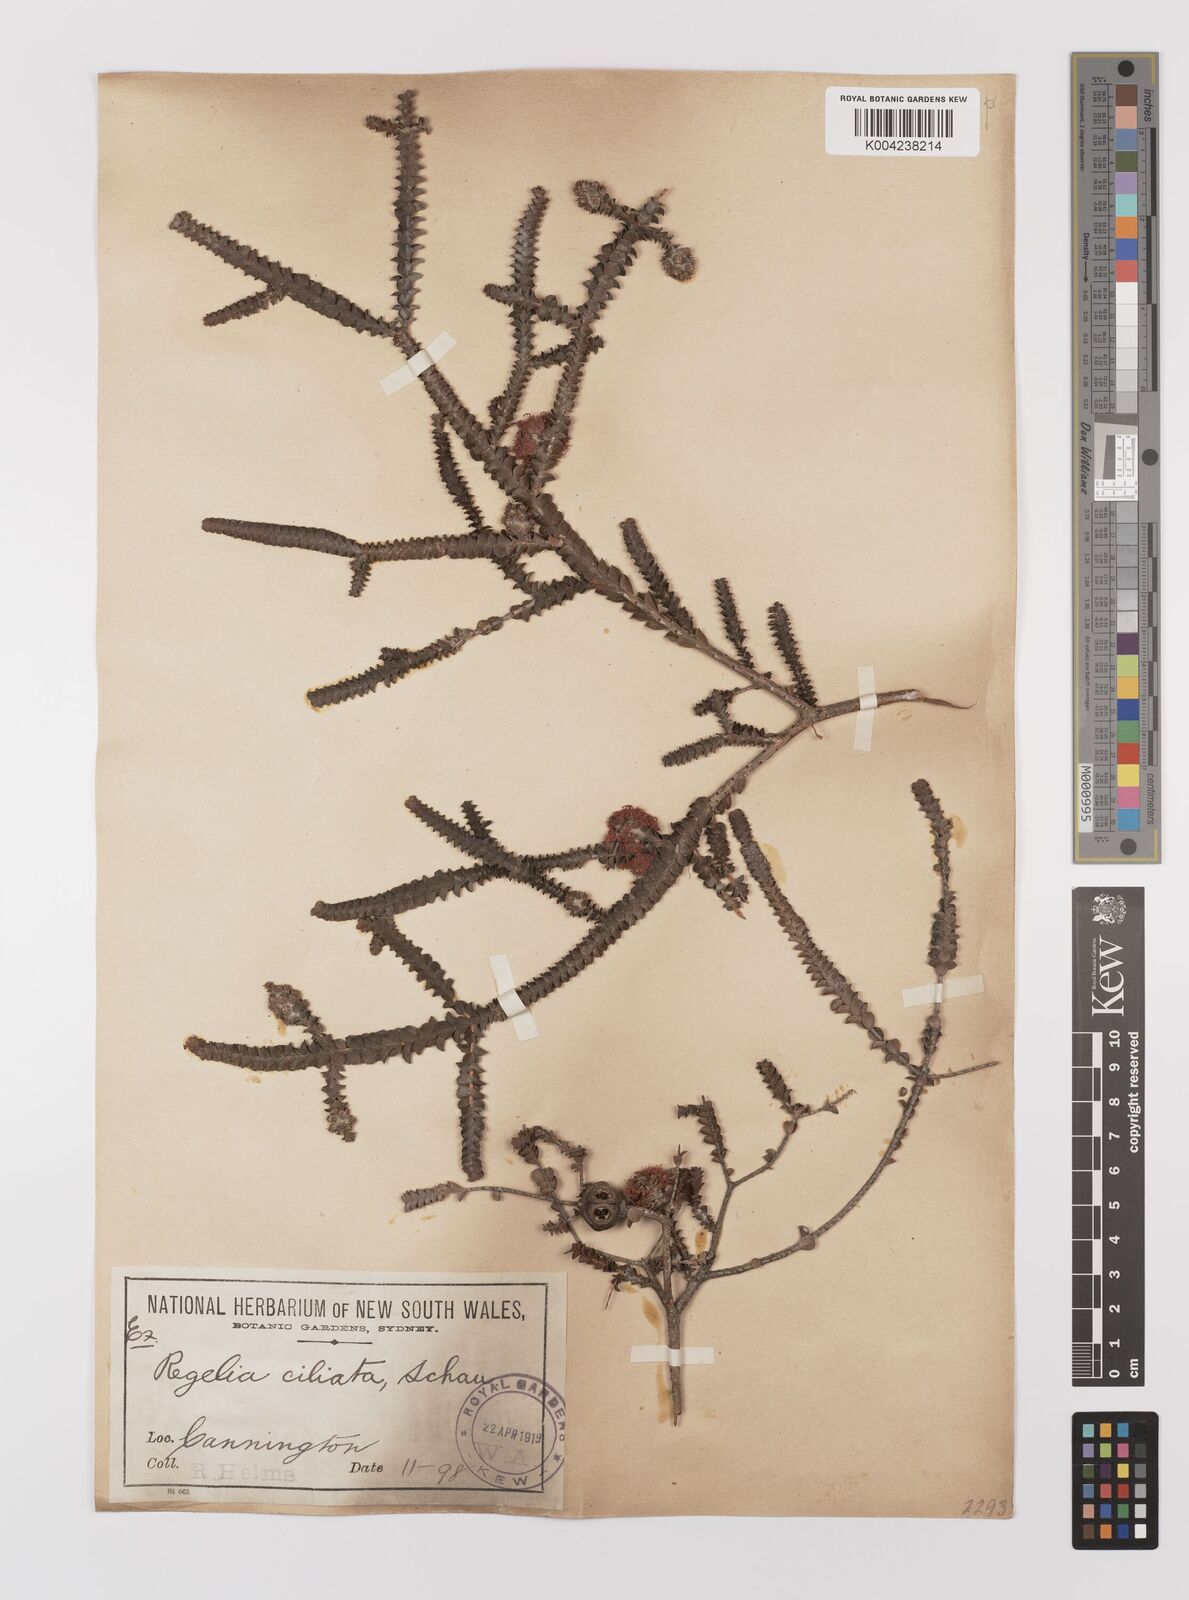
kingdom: Plantae
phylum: Tracheophyta
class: Magnoliopsida
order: Myrtales
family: Myrtaceae
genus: Melaleuca
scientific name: Melaleuca crossota
